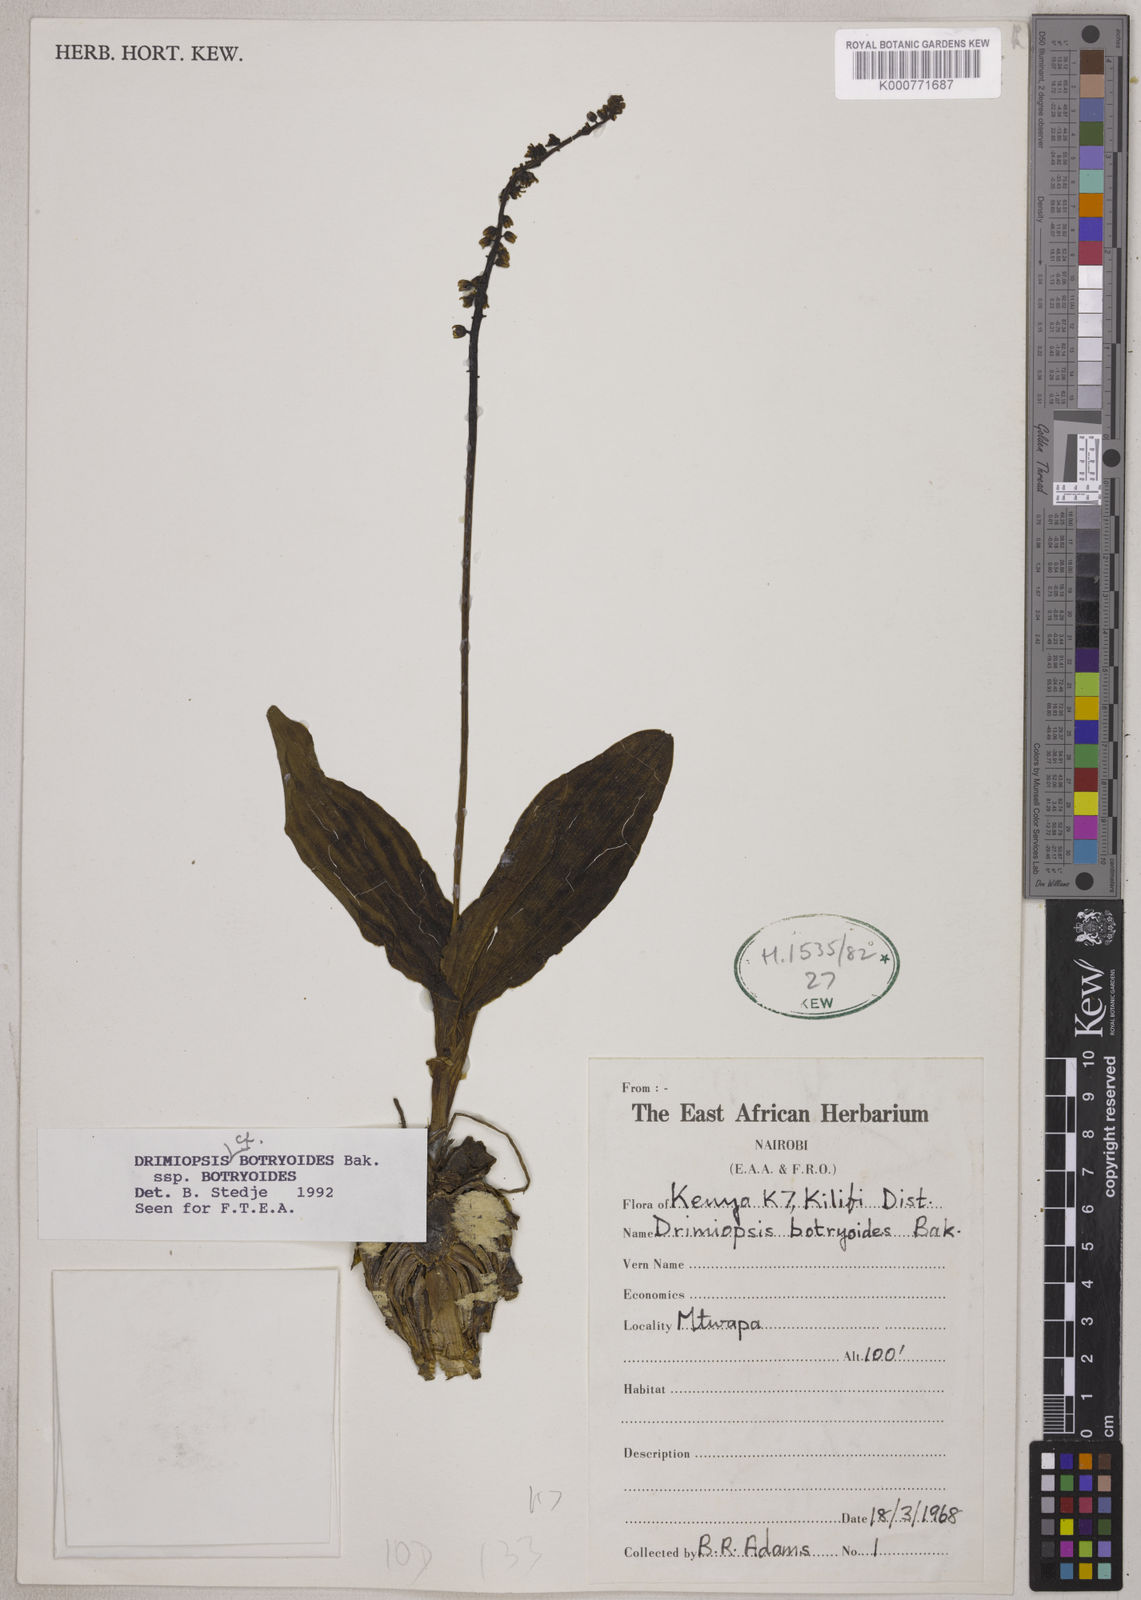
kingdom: Plantae
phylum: Tracheophyta
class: Liliopsida
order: Asparagales
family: Asparagaceae
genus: Drimiopsis
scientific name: Drimiopsis botryoides
